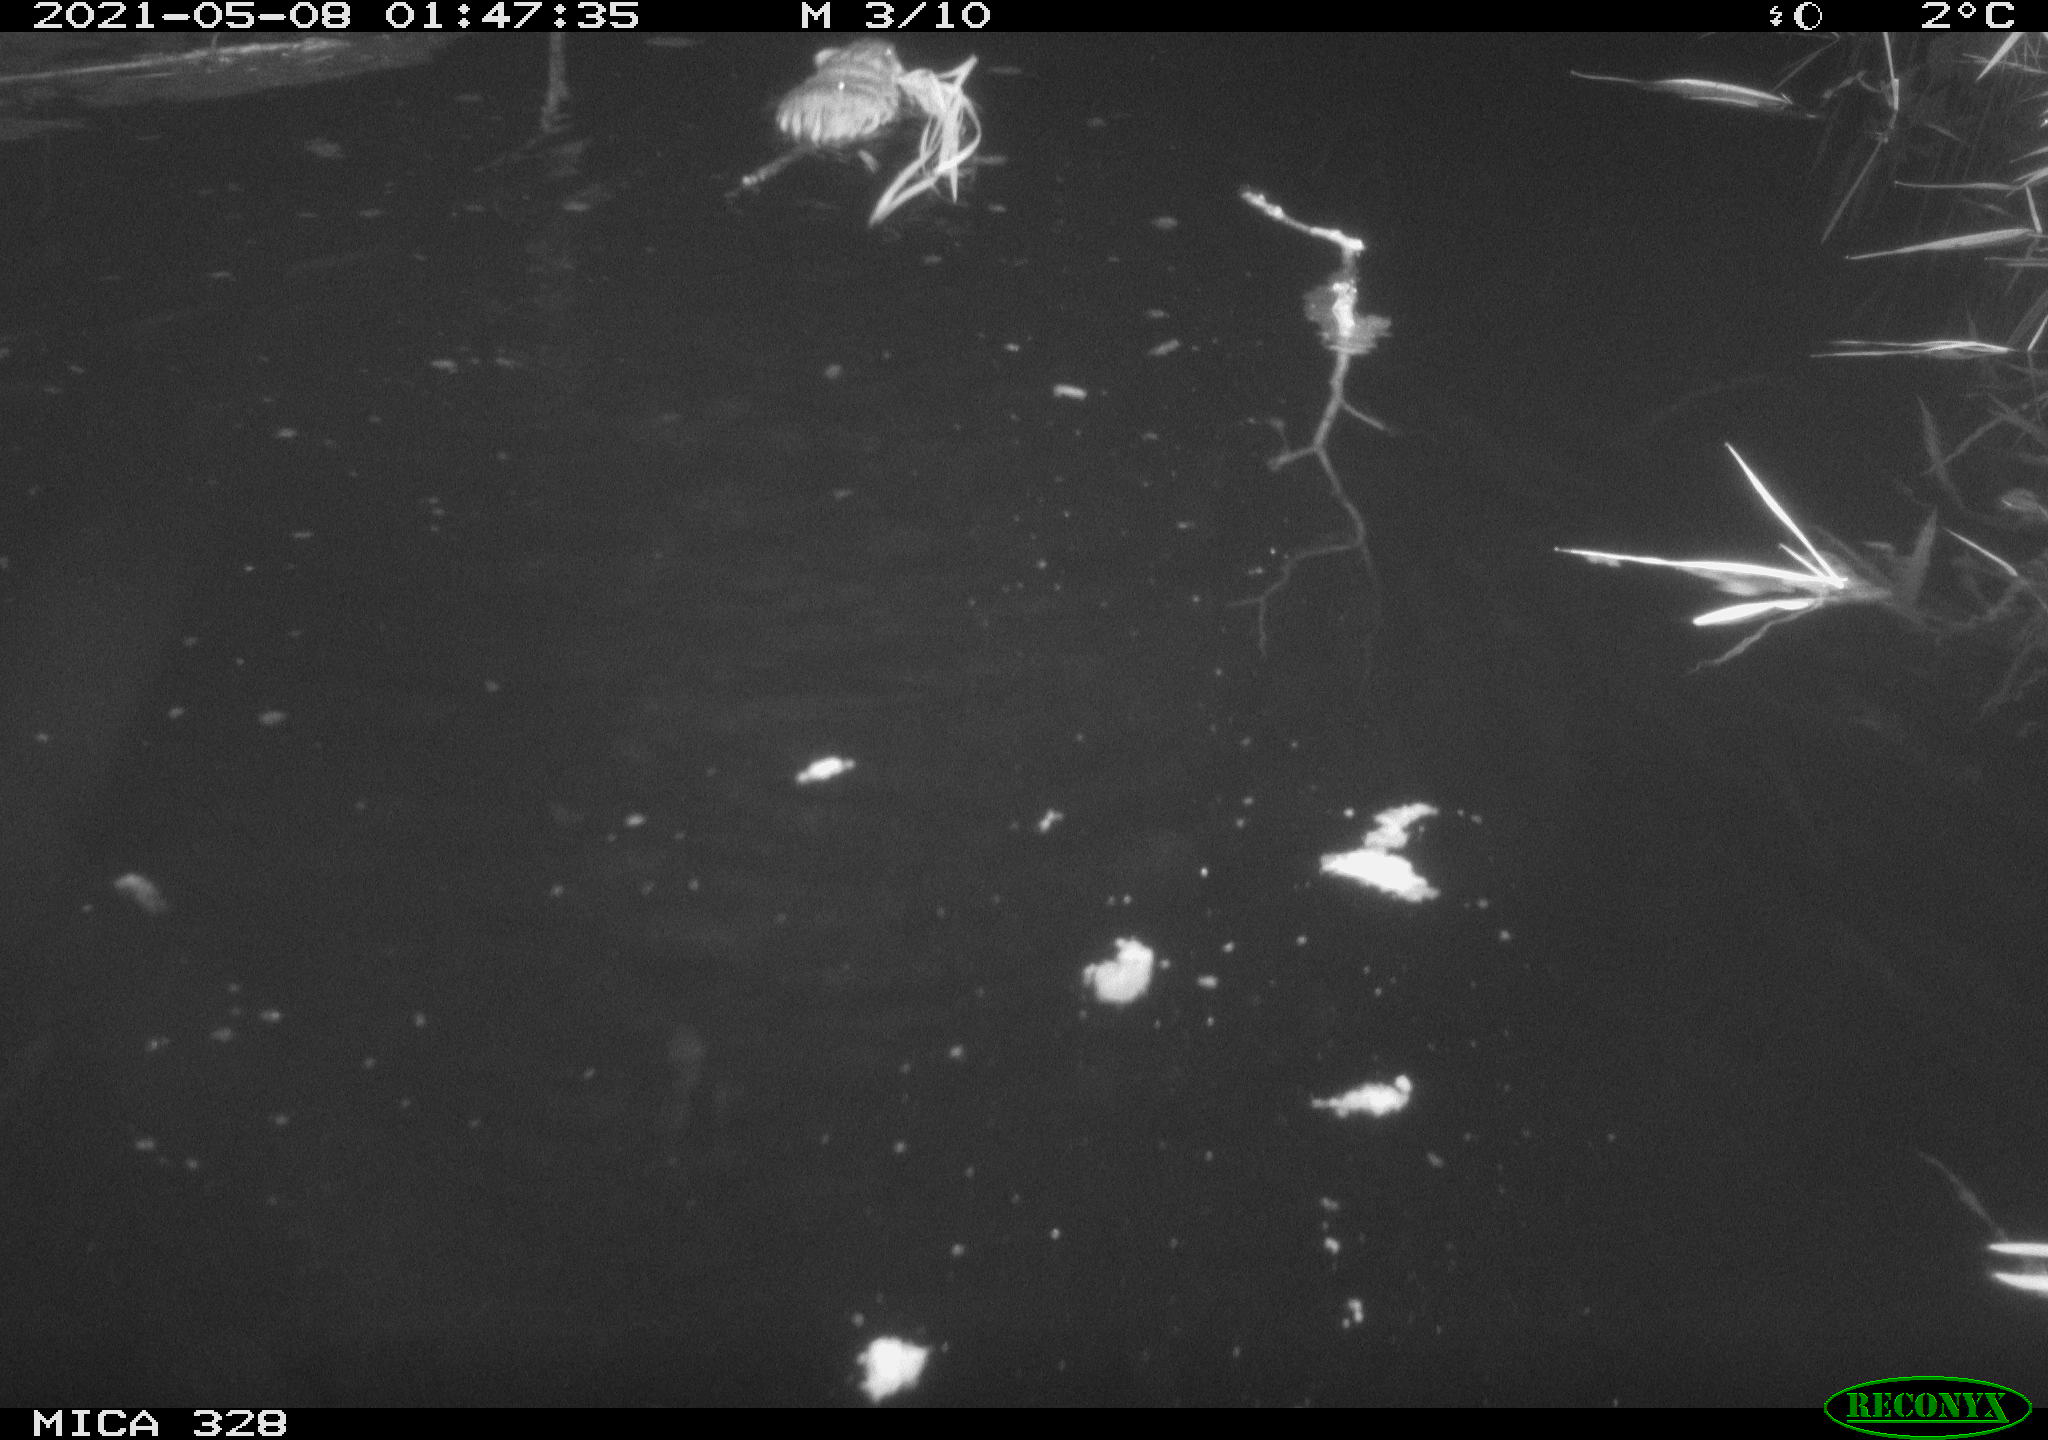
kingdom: Animalia
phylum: Chordata
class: Mammalia
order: Rodentia
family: Cricetidae
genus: Ondatra
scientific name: Ondatra zibethicus
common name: Muskrat
